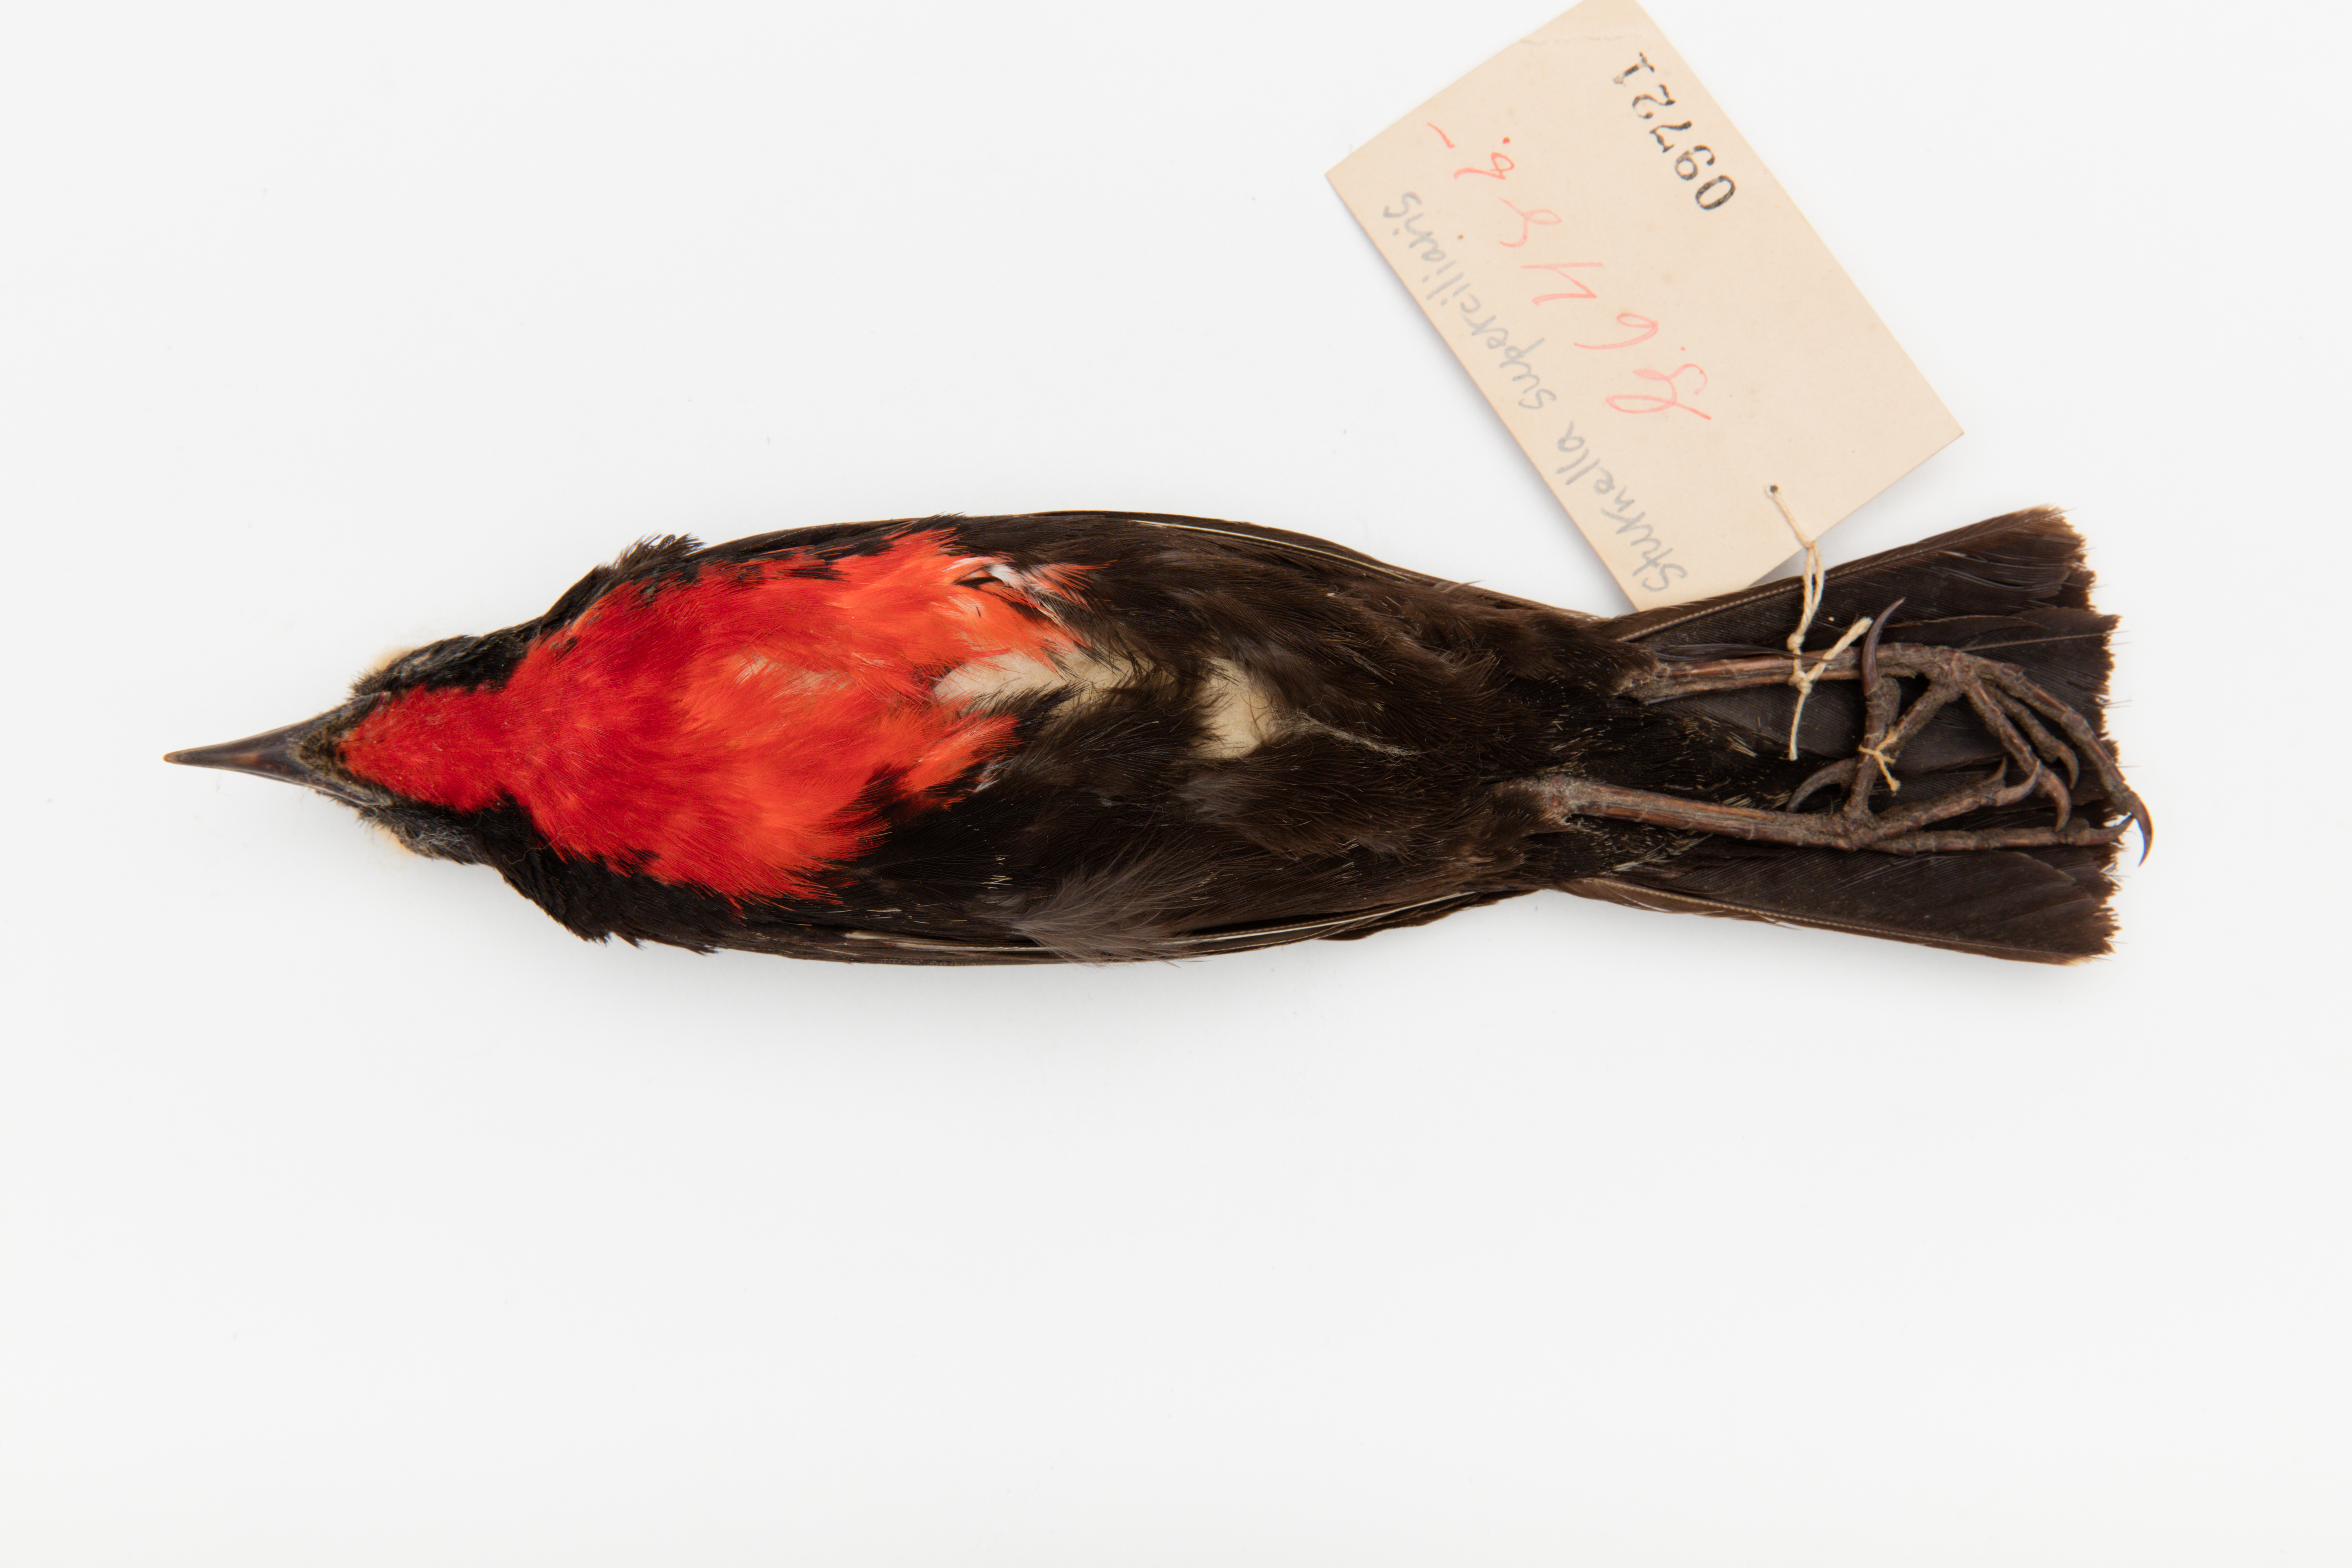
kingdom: Animalia
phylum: Chordata
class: Aves
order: Passeriformes
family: Icteridae
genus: Sturnella
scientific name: Sturnella superciliaris
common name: White-browed blackbird
